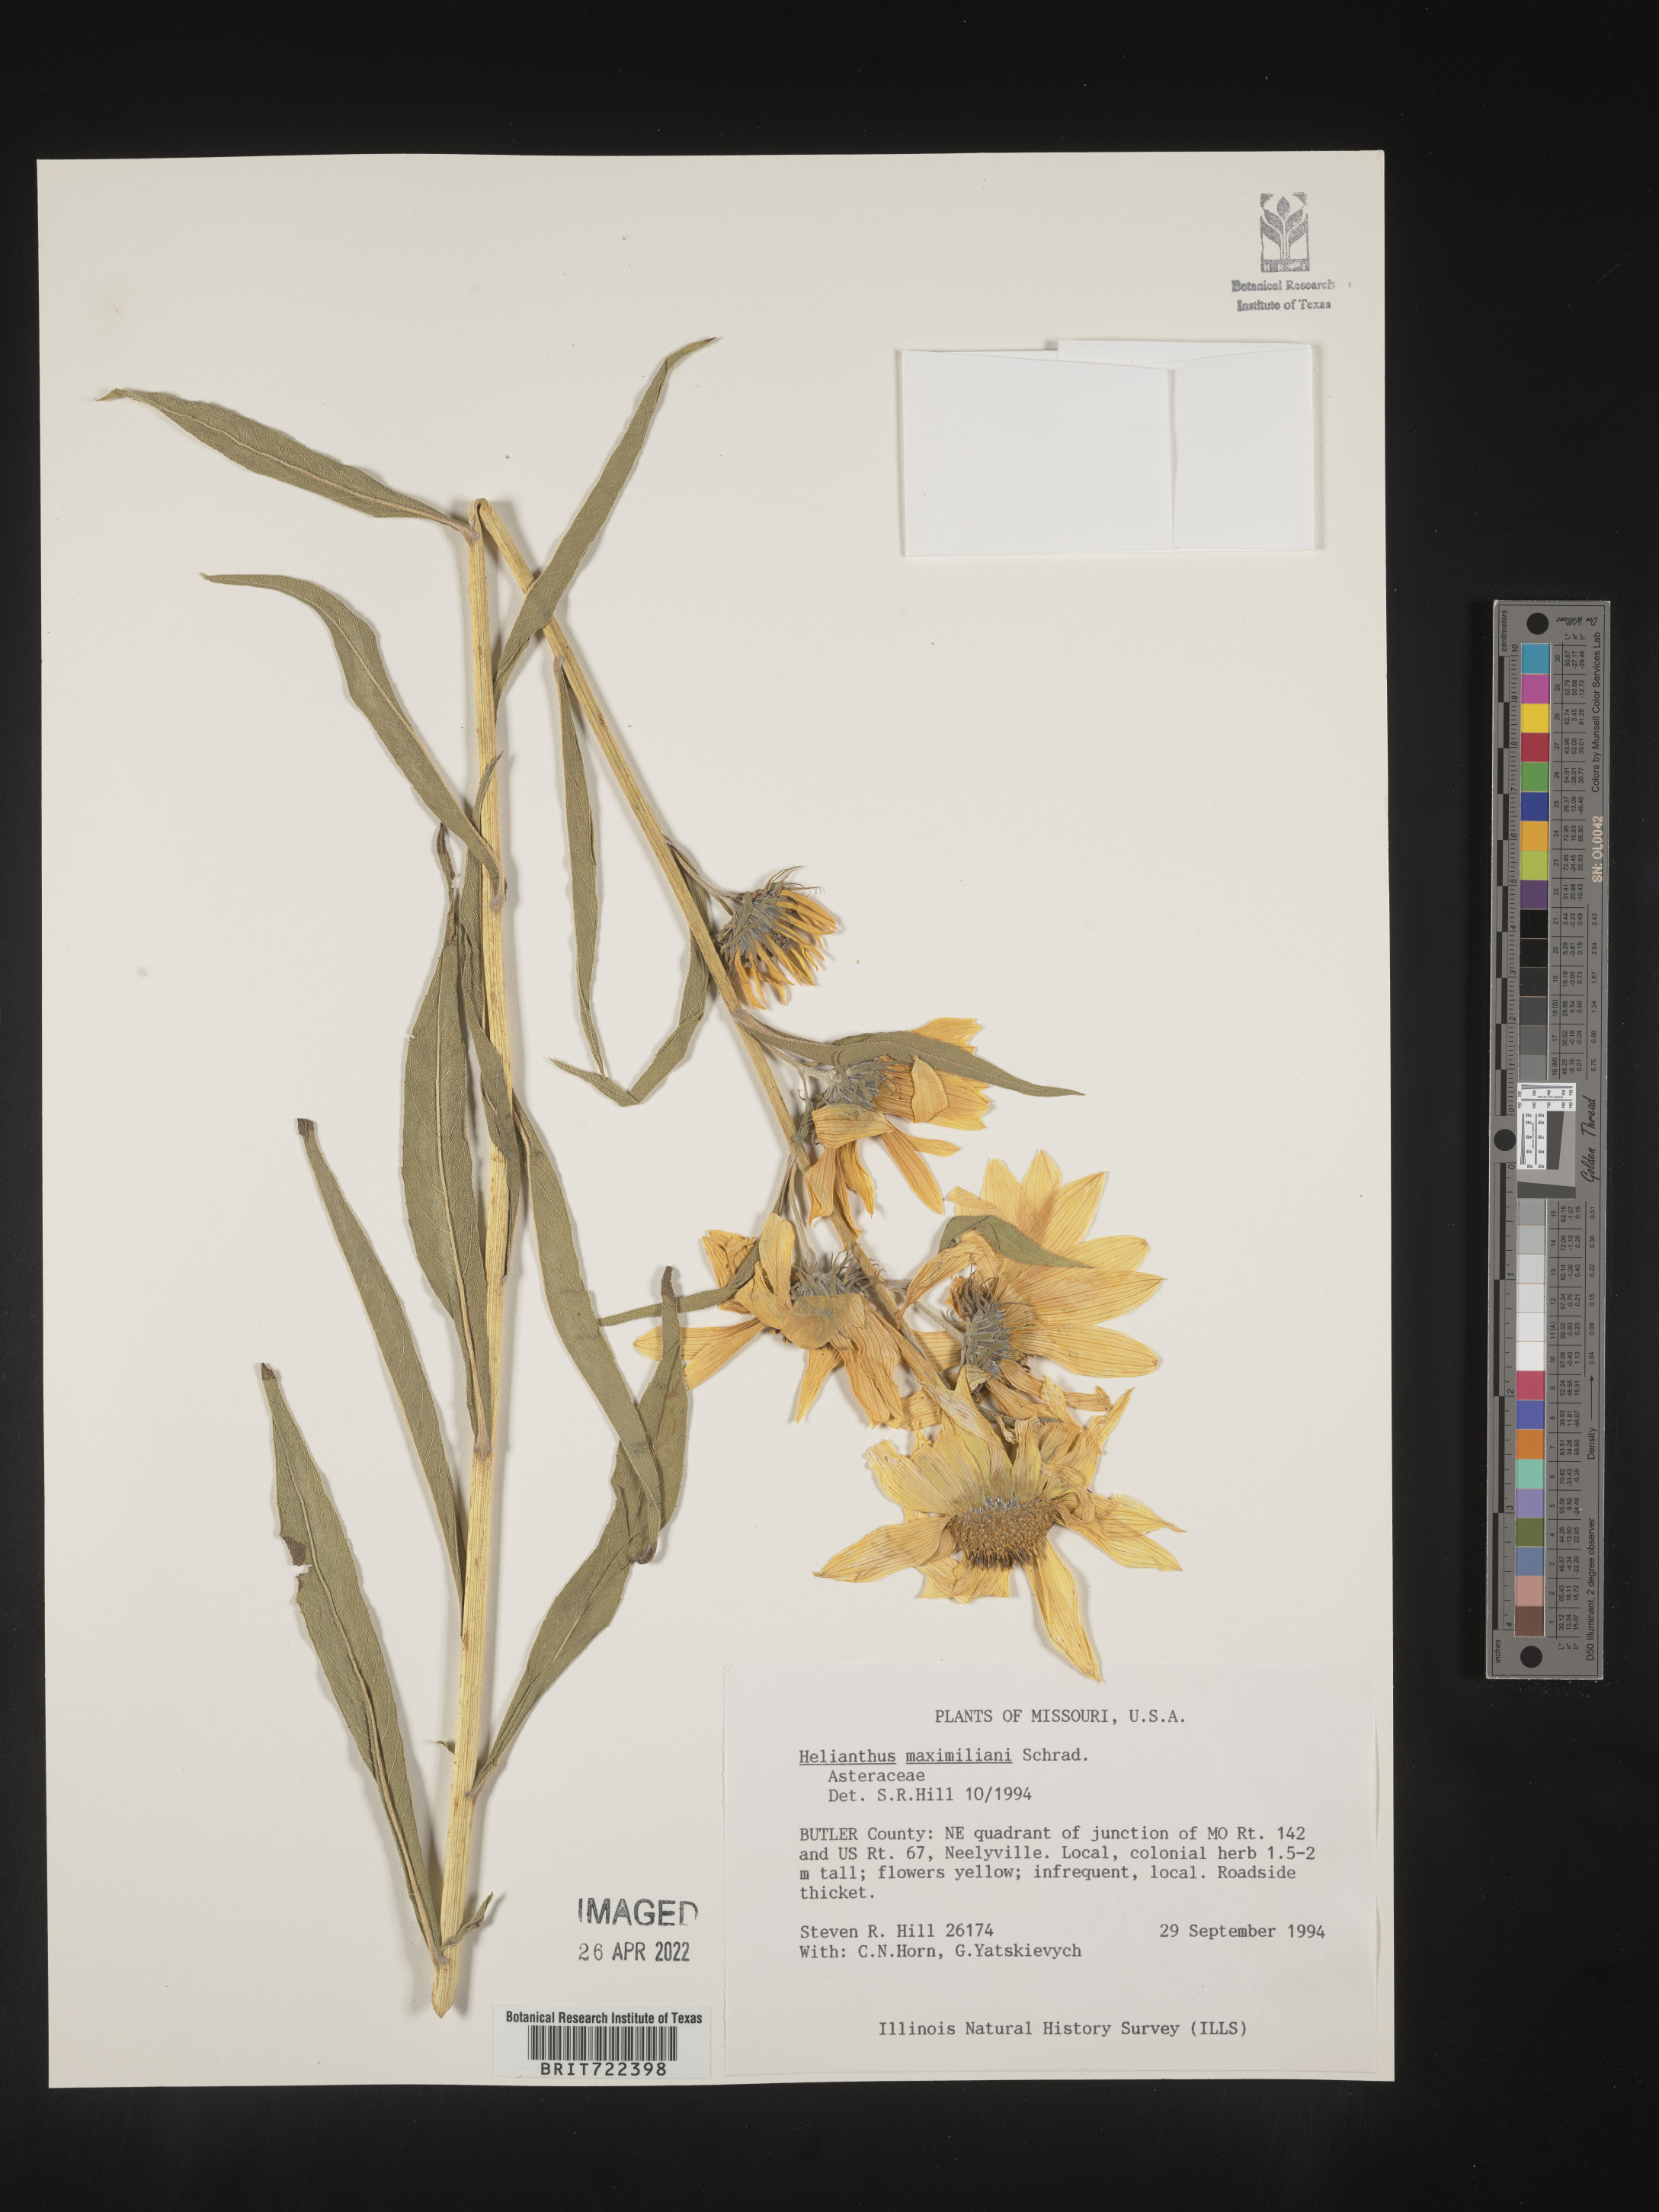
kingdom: Plantae
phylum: Tracheophyta
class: Magnoliopsida
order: Asterales
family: Asteraceae
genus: Helianthus
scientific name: Helianthus maximiliani
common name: Maximilian's sunflower
